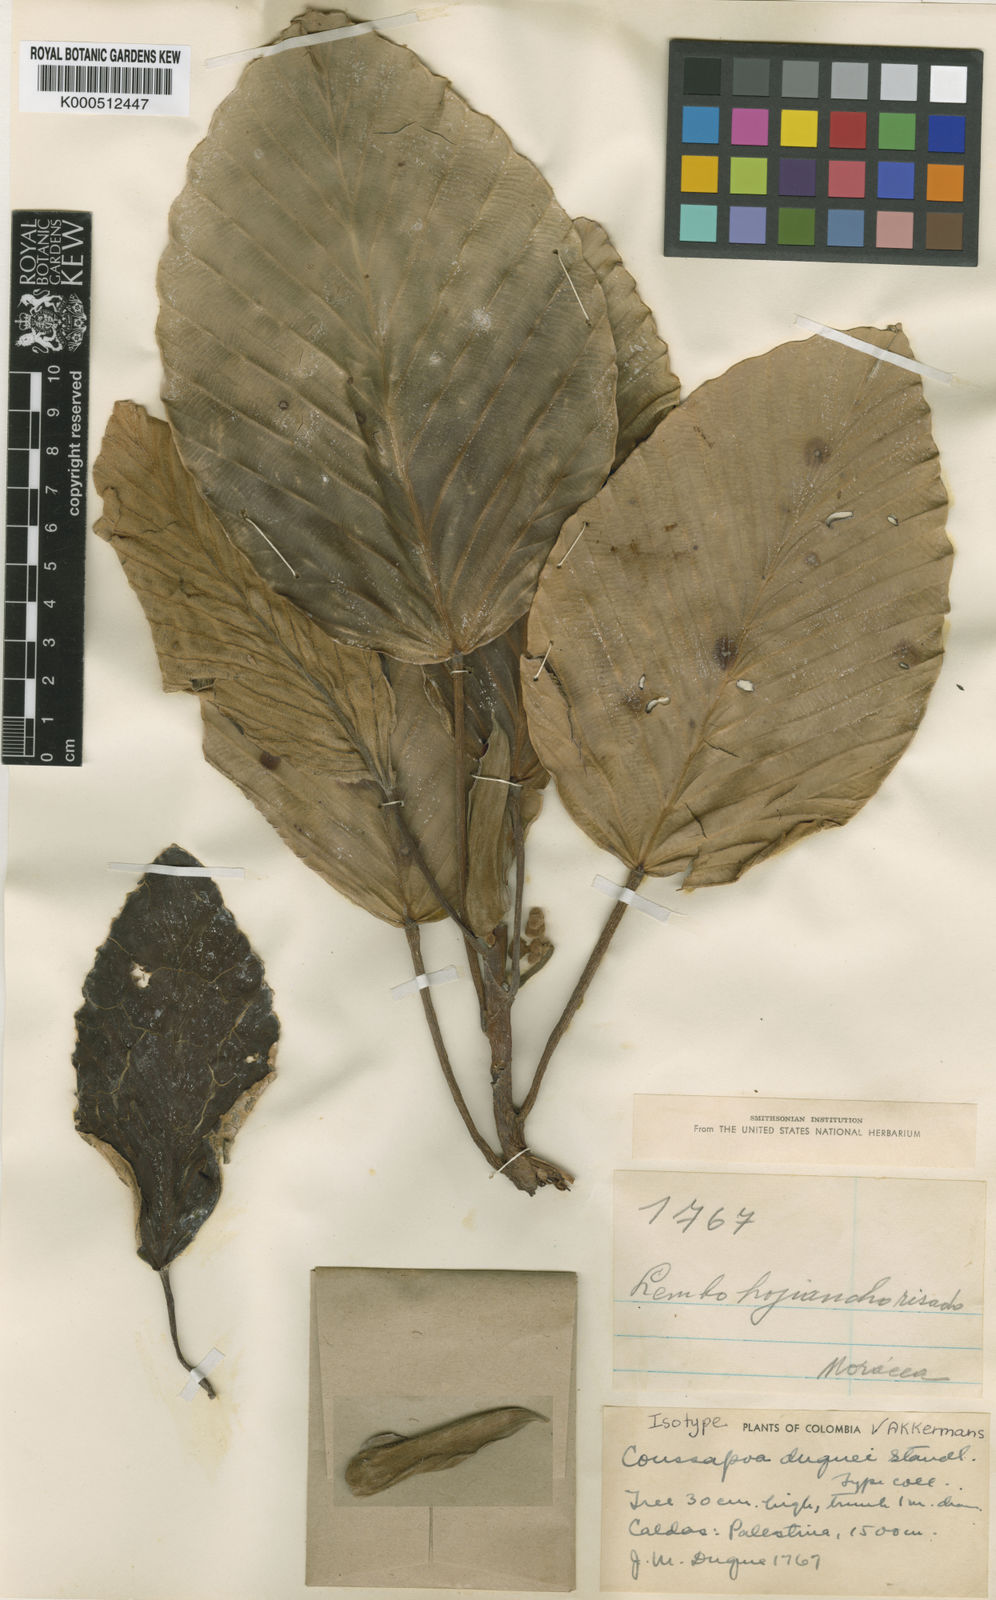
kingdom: Plantae
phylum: Tracheophyta
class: Magnoliopsida
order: Rosales
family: Urticaceae
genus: Coussapoa
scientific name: Coussapoa duquei
